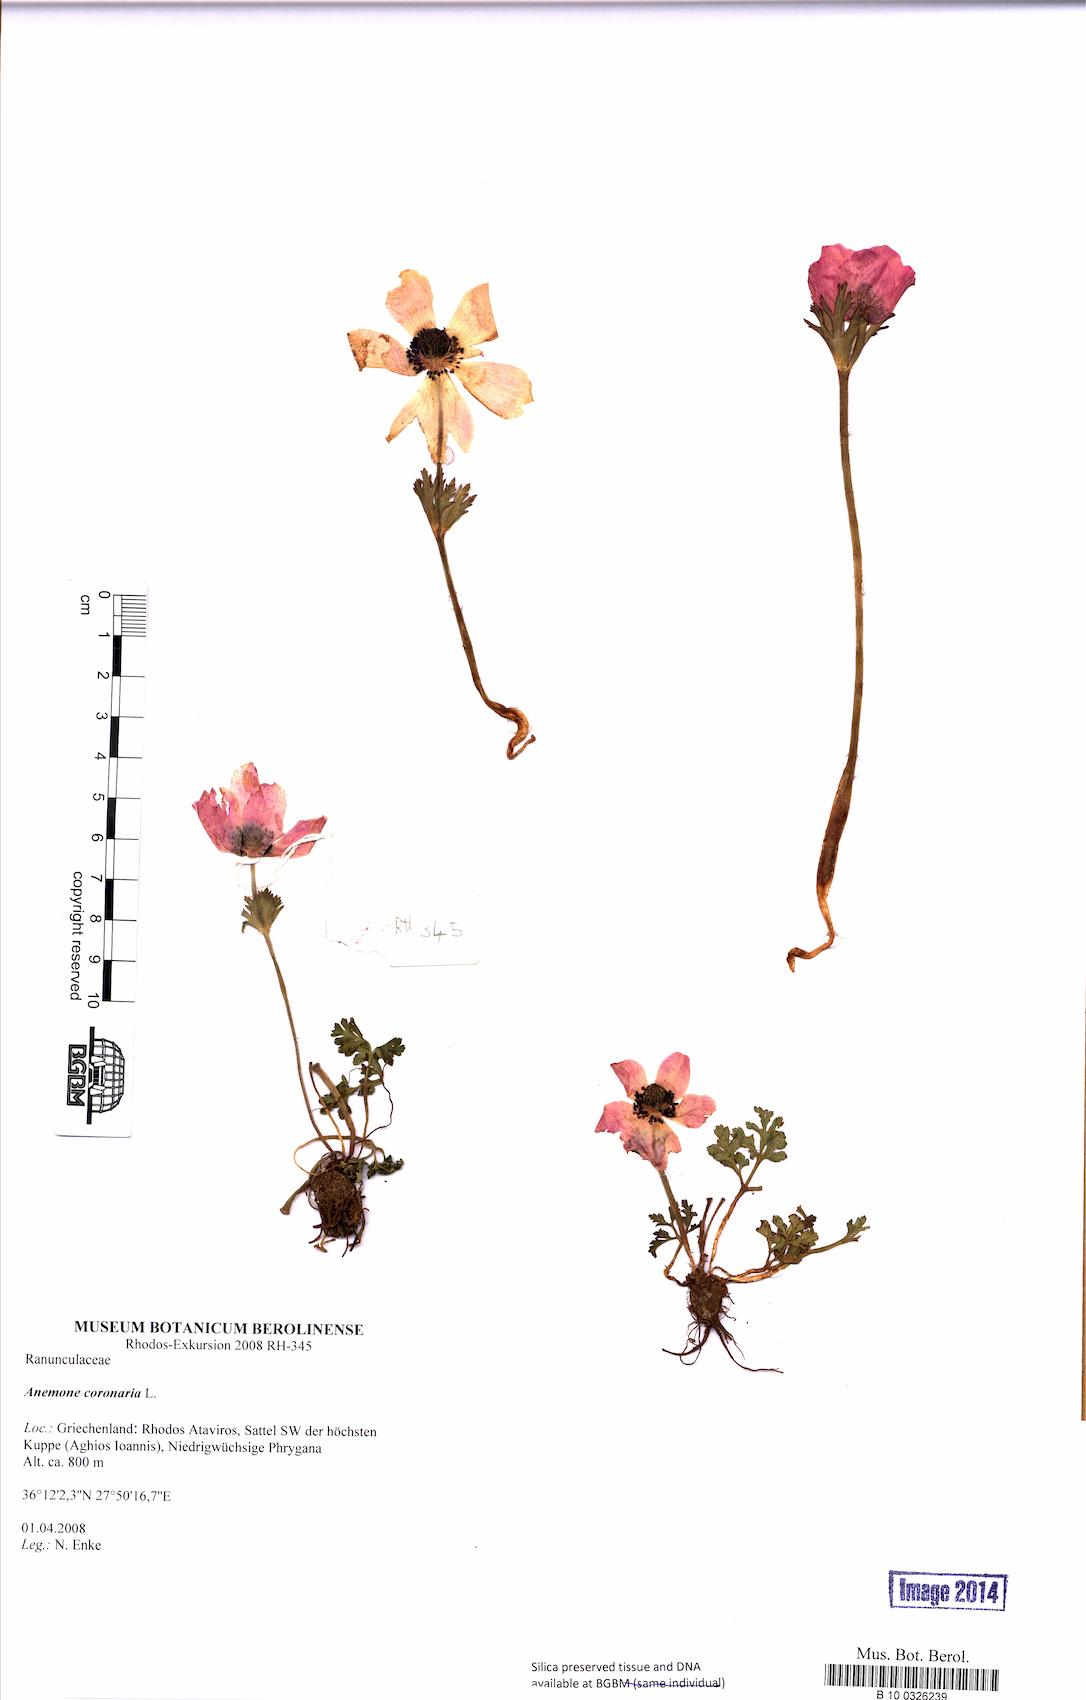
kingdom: Plantae
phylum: Tracheophyta
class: Magnoliopsida
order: Ranunculales
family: Ranunculaceae
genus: Anemone
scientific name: Anemone coronaria
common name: Poppy anemone
